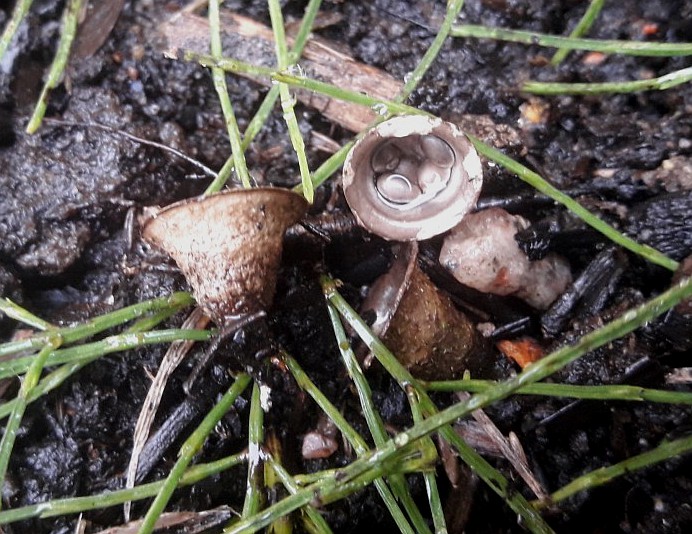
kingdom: Fungi
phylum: Basidiomycota
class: Agaricomycetes
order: Agaricales
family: Agaricaceae
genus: Cyathus
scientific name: Cyathus olla
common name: klokke-redesvamp
